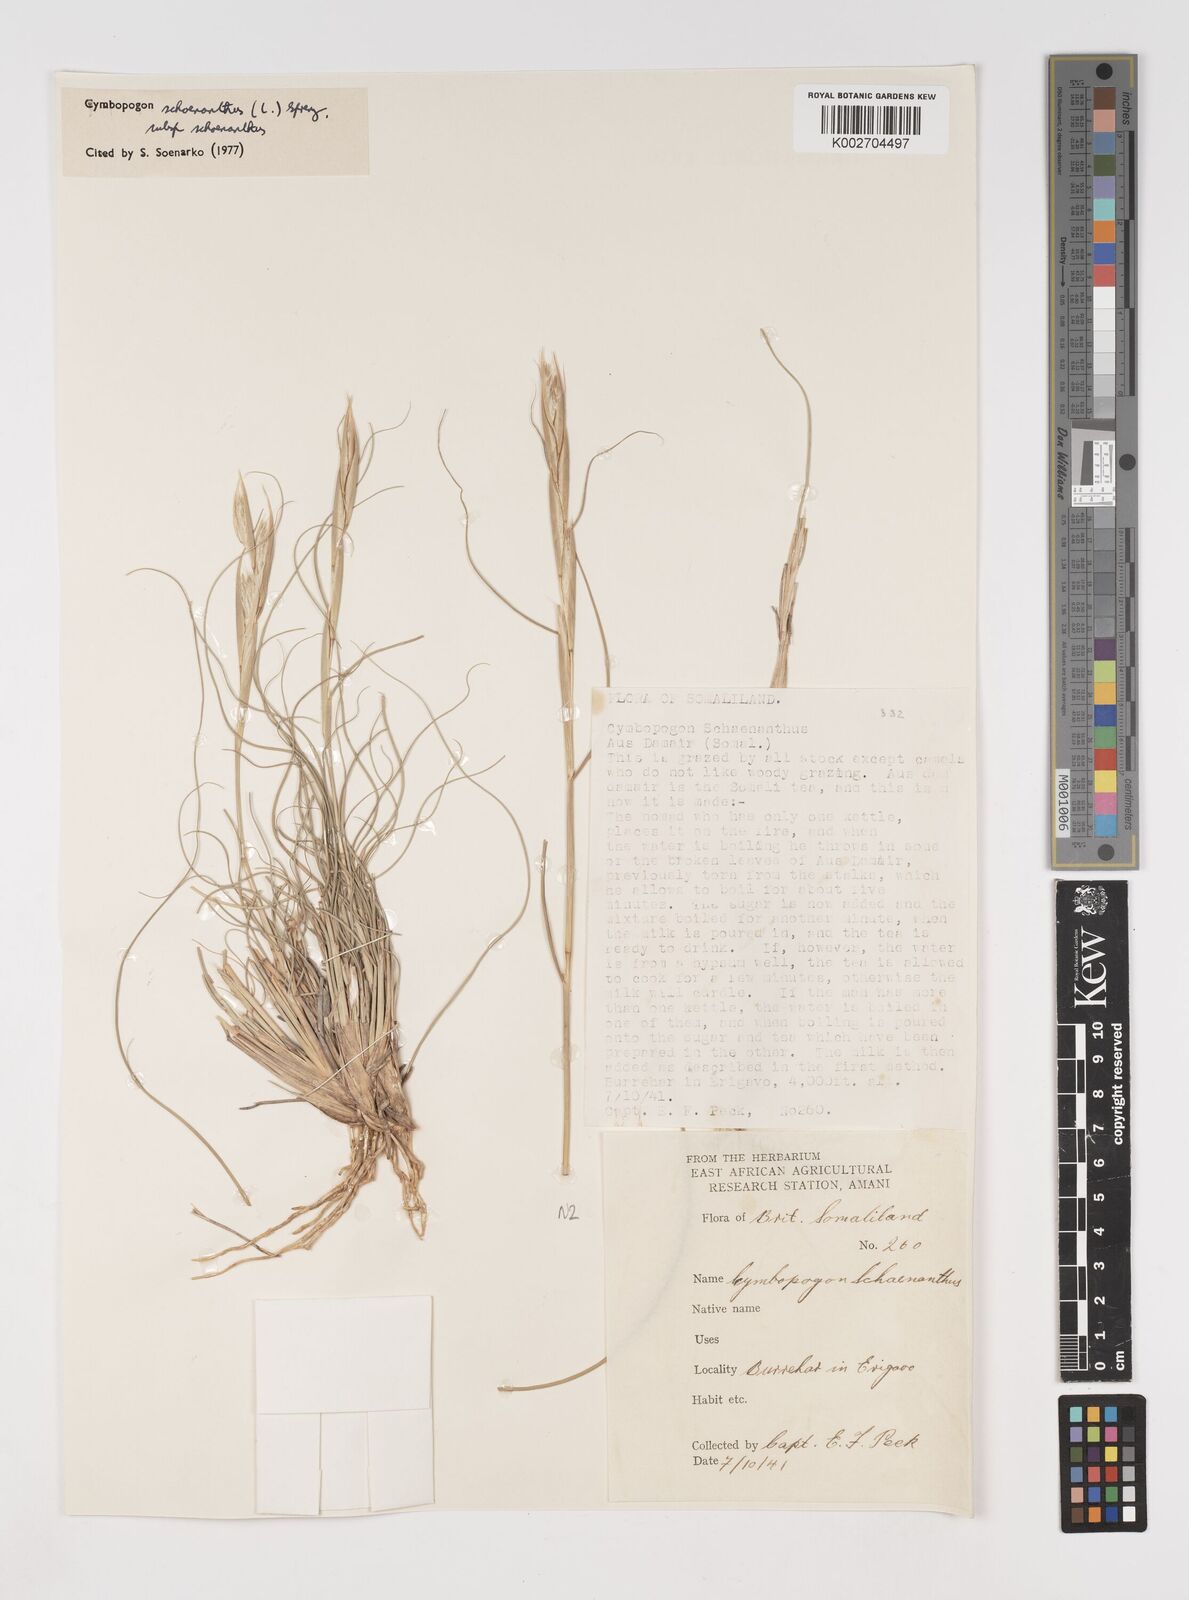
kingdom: Plantae
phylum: Tracheophyta
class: Liliopsida
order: Poales
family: Poaceae
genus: Cymbopogon
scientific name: Cymbopogon schoenanthus
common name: Geranium grass
